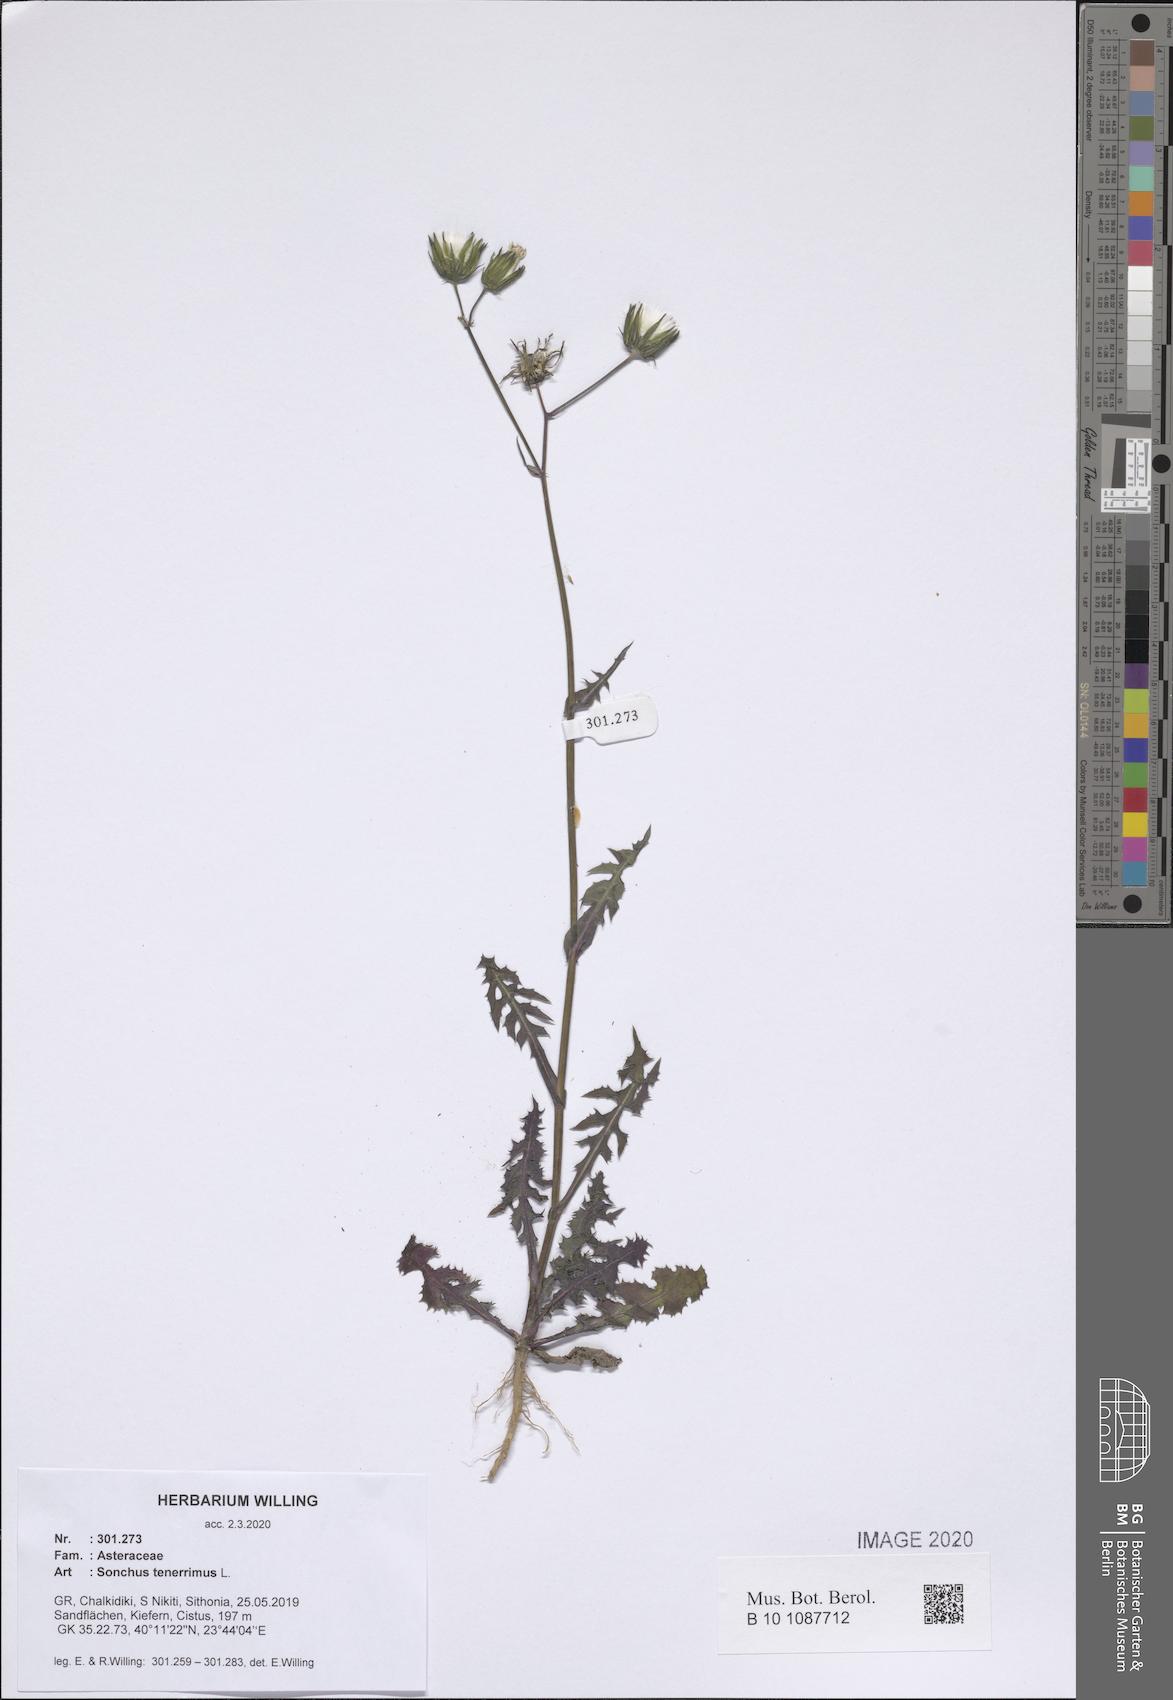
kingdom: Plantae
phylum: Tracheophyta
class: Magnoliopsida
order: Asterales
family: Asteraceae
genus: Sonchus
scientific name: Sonchus tenerrimus
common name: Clammy sowthistle
